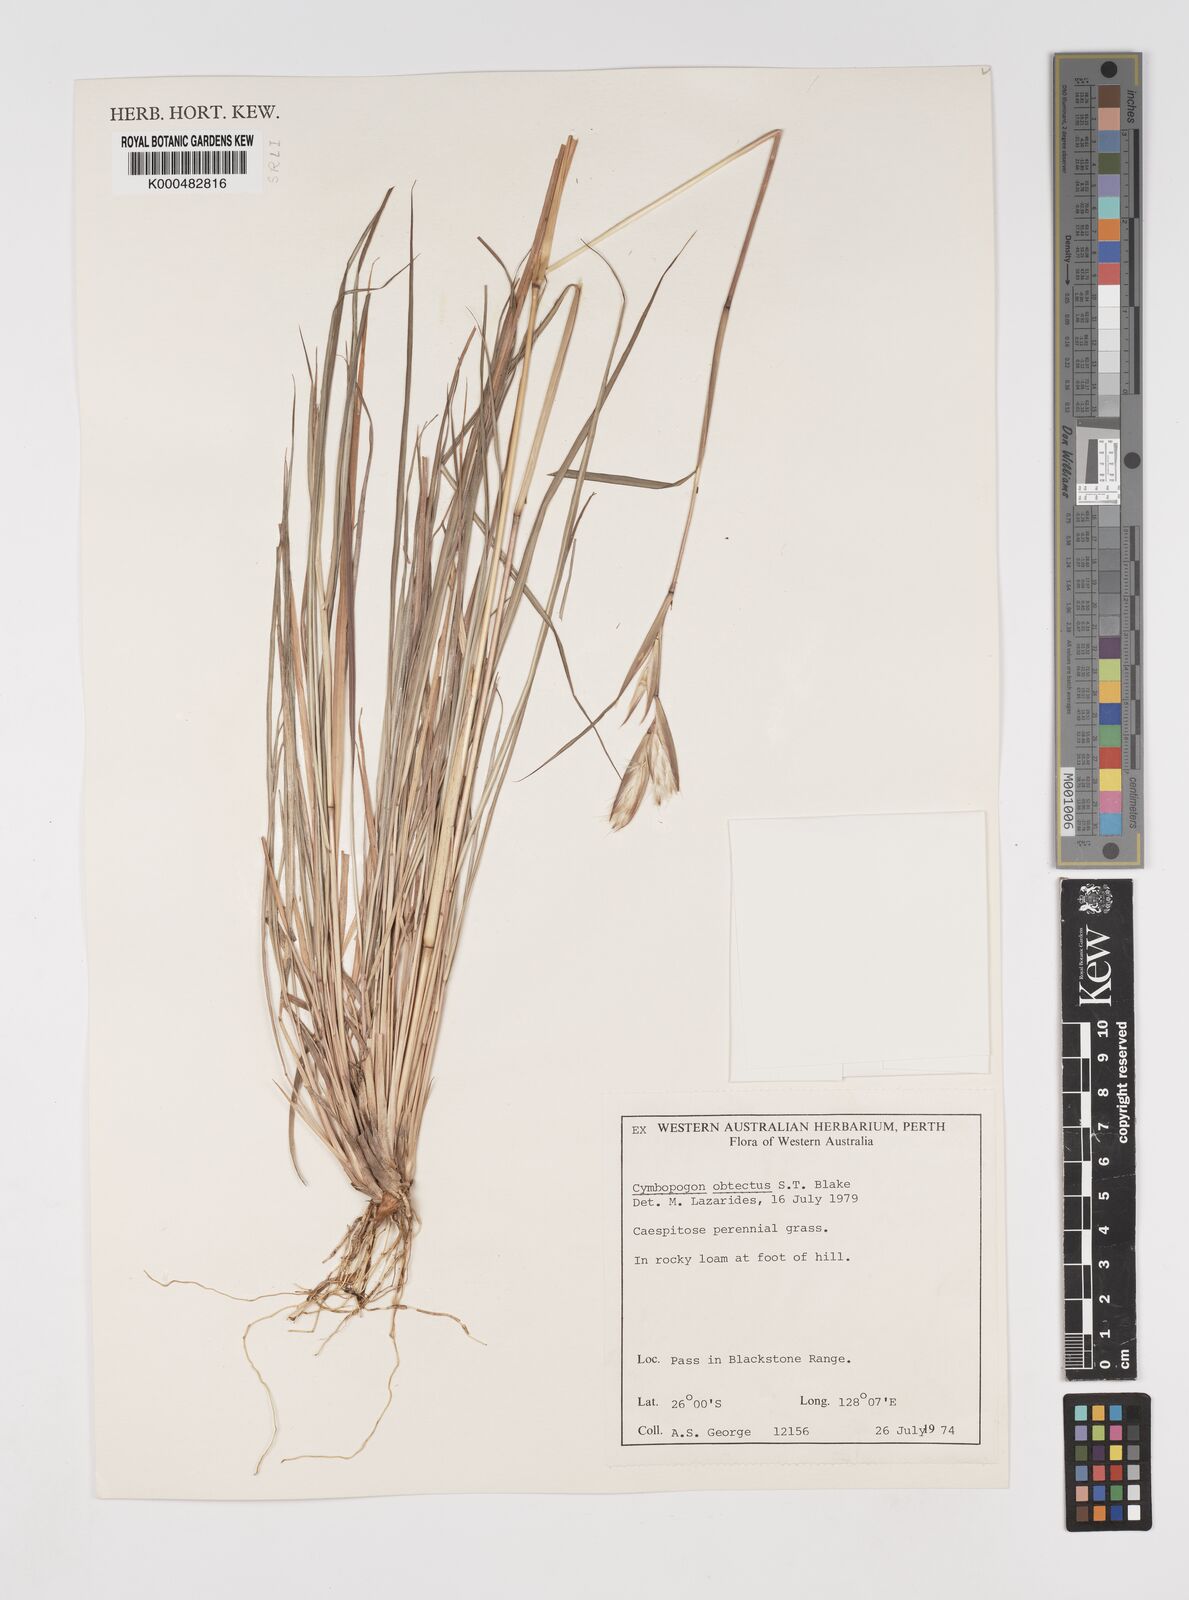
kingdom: Plantae
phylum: Tracheophyta
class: Liliopsida
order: Poales
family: Poaceae
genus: Cymbopogon
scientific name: Cymbopogon obtectus
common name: Silky heads
